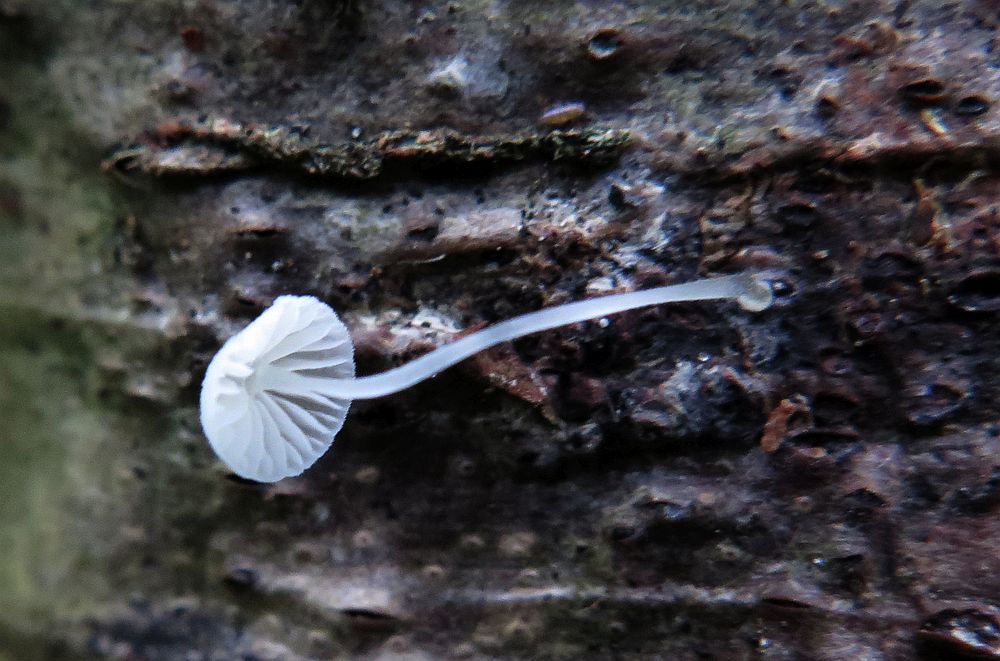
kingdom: Fungi
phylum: Basidiomycota
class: Agaricomycetes
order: Agaricales
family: Mycenaceae
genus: Mycena
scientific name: Mycena tenerrima
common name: pudret huesvamp
